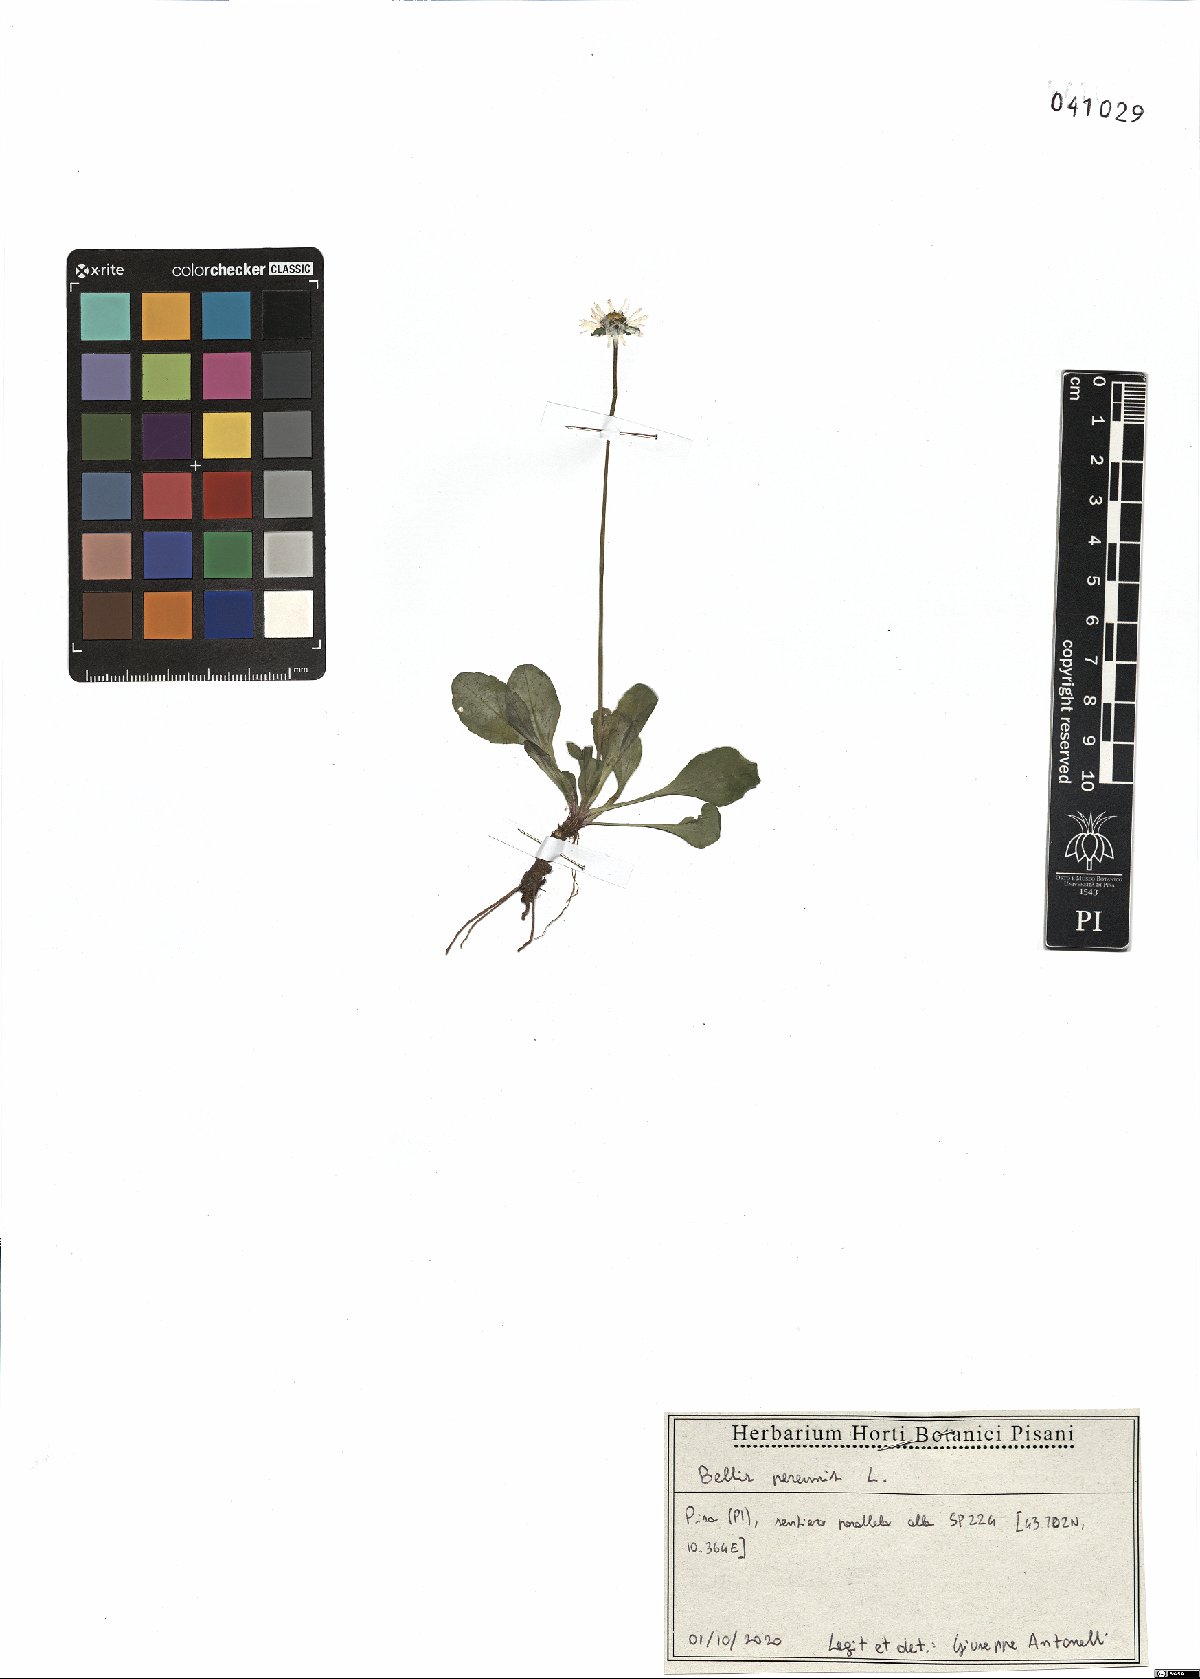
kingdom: Plantae
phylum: Tracheophyta
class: Magnoliopsida
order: Asterales
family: Asteraceae
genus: Bellis
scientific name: Bellis perennis
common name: Lawndaisy
